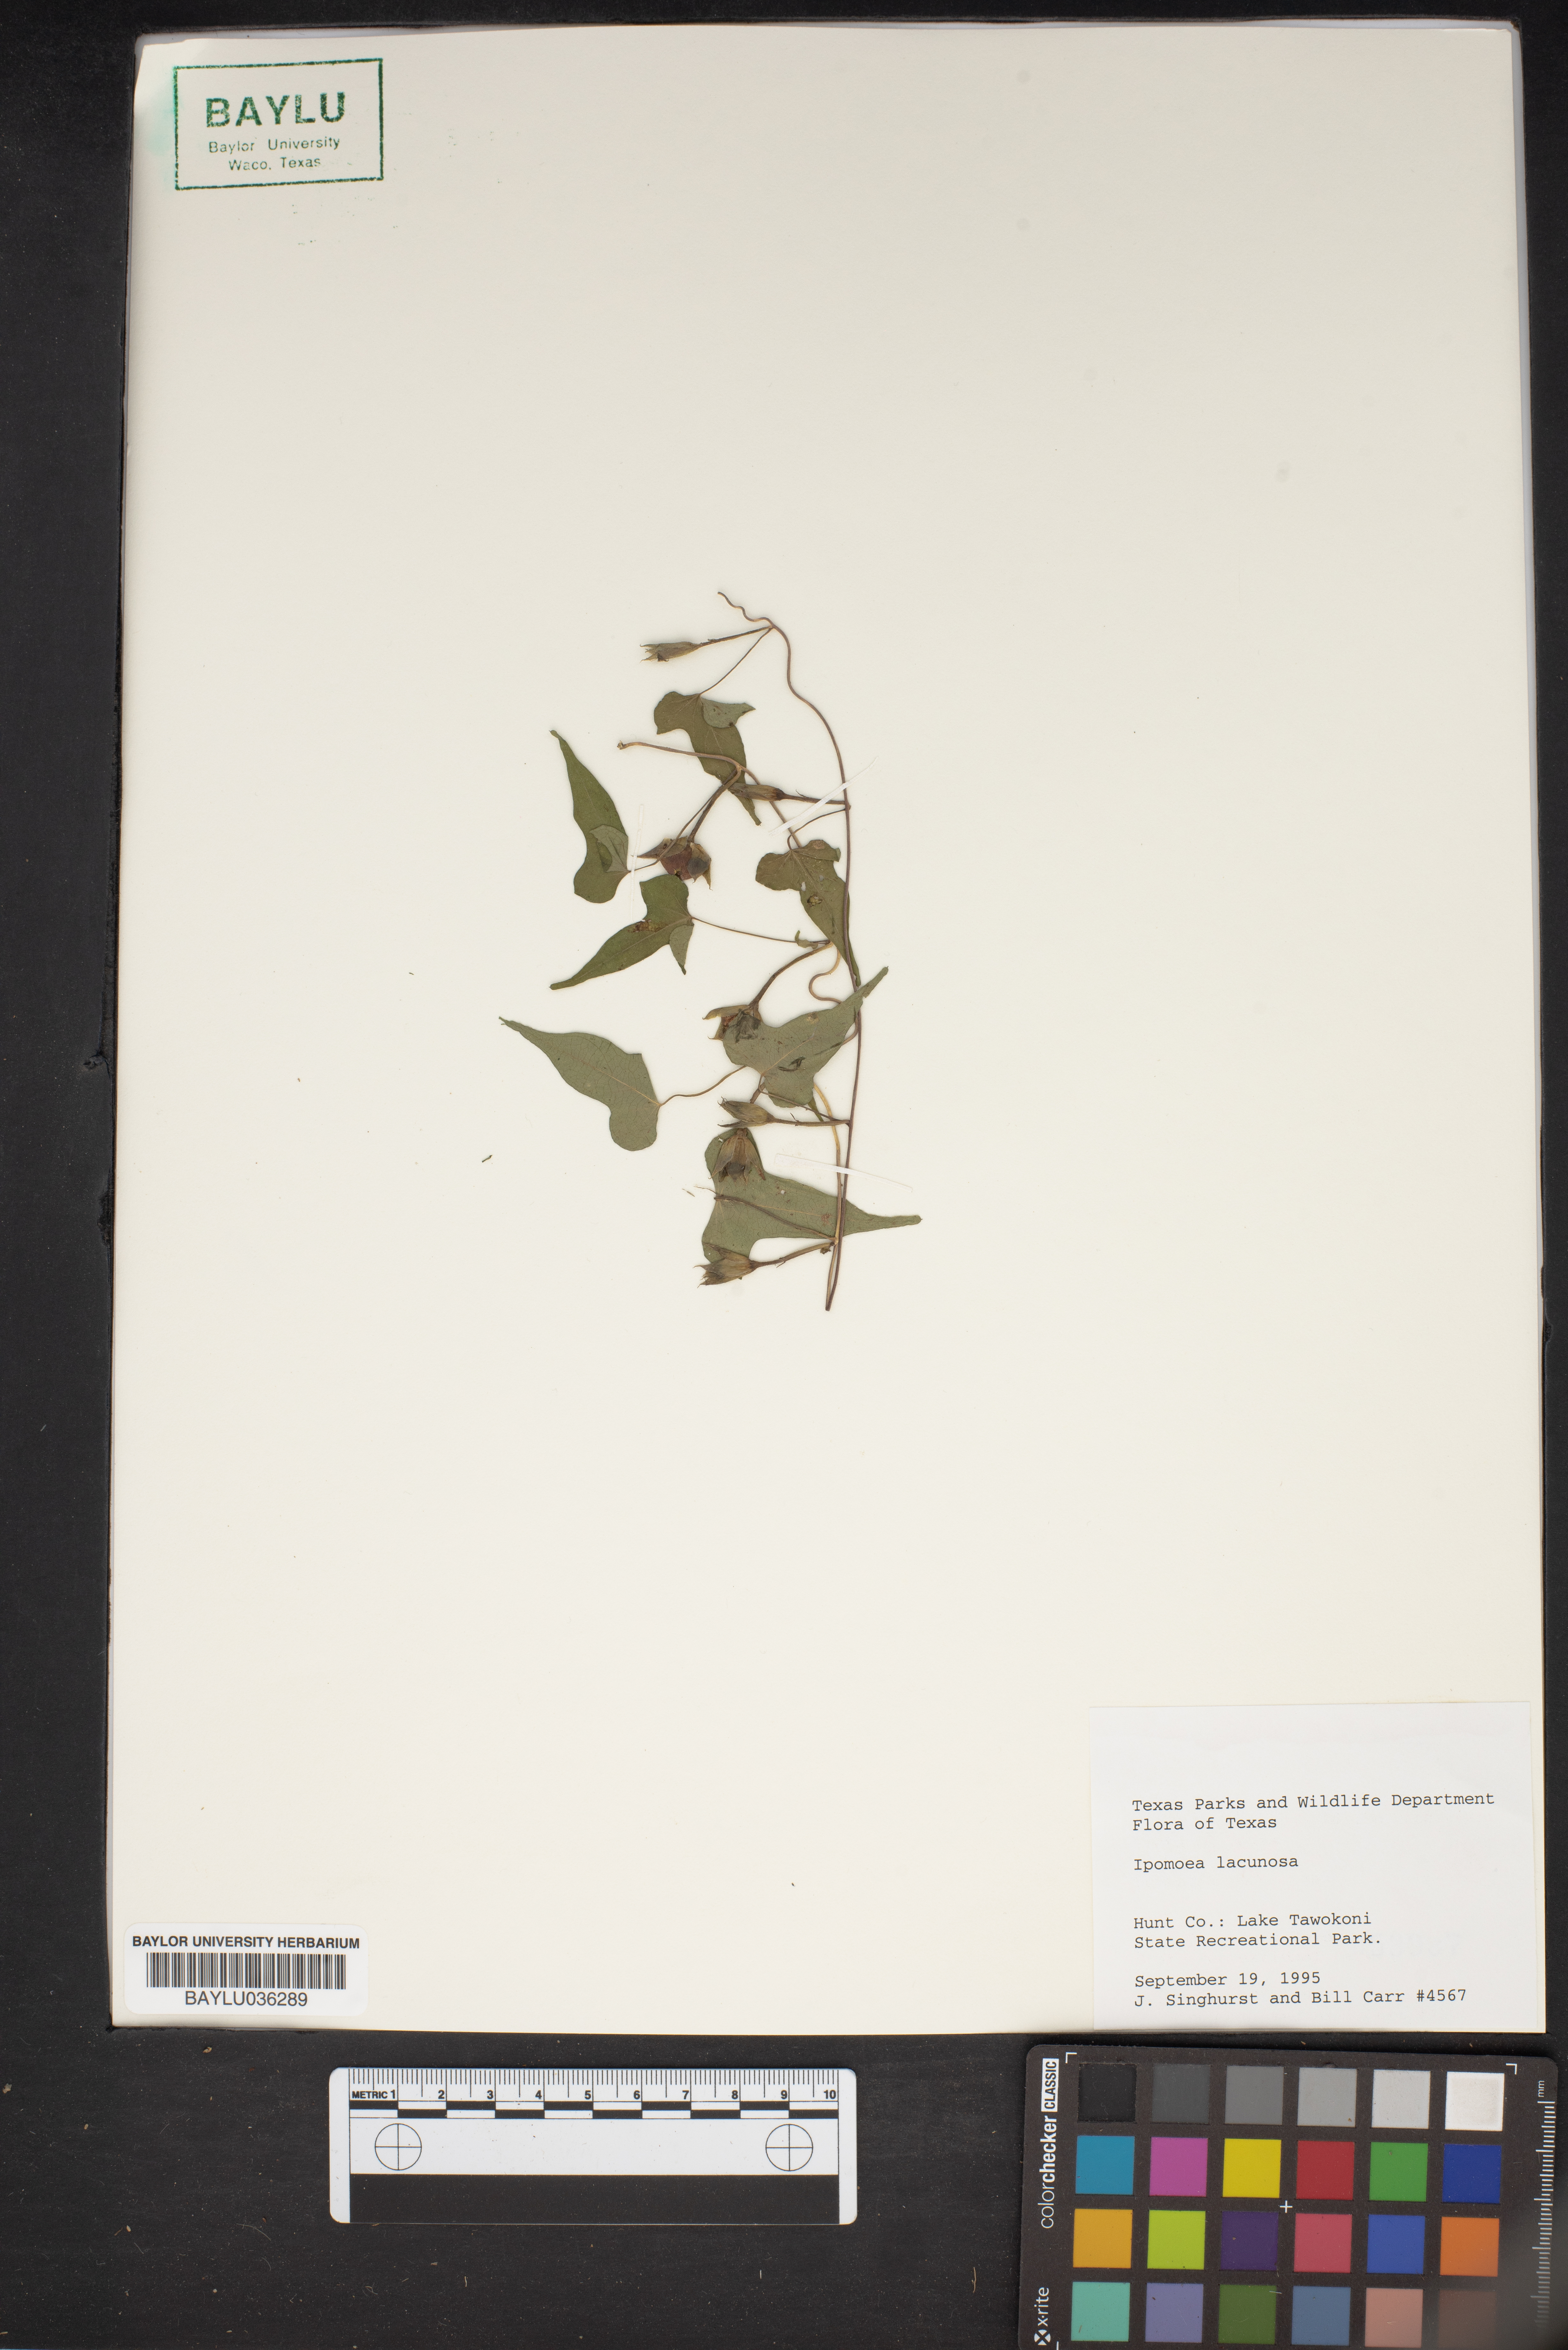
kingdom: Plantae
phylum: Tracheophyta
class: Magnoliopsida
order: Solanales
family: Convolvulaceae
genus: Ipomoea
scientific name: Ipomoea lacunosa
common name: White morning-glory
